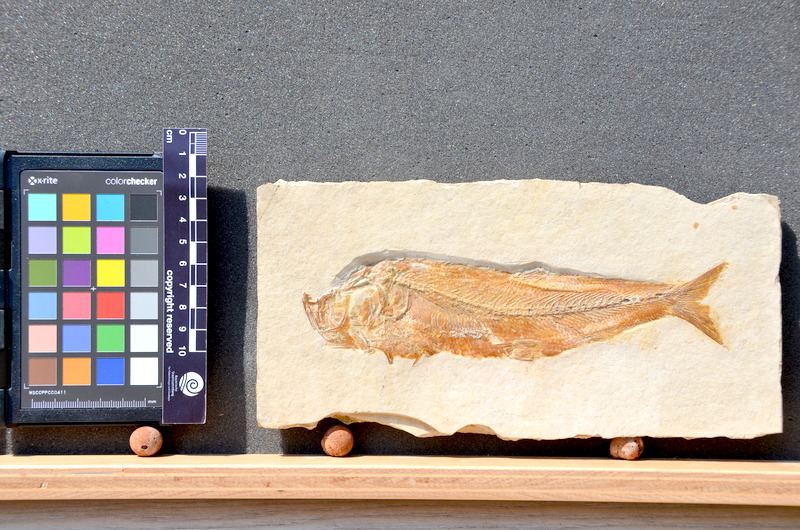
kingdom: Animalia
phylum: Chordata
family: Ascalaboidae
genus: Tharsis
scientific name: Tharsis dubius
